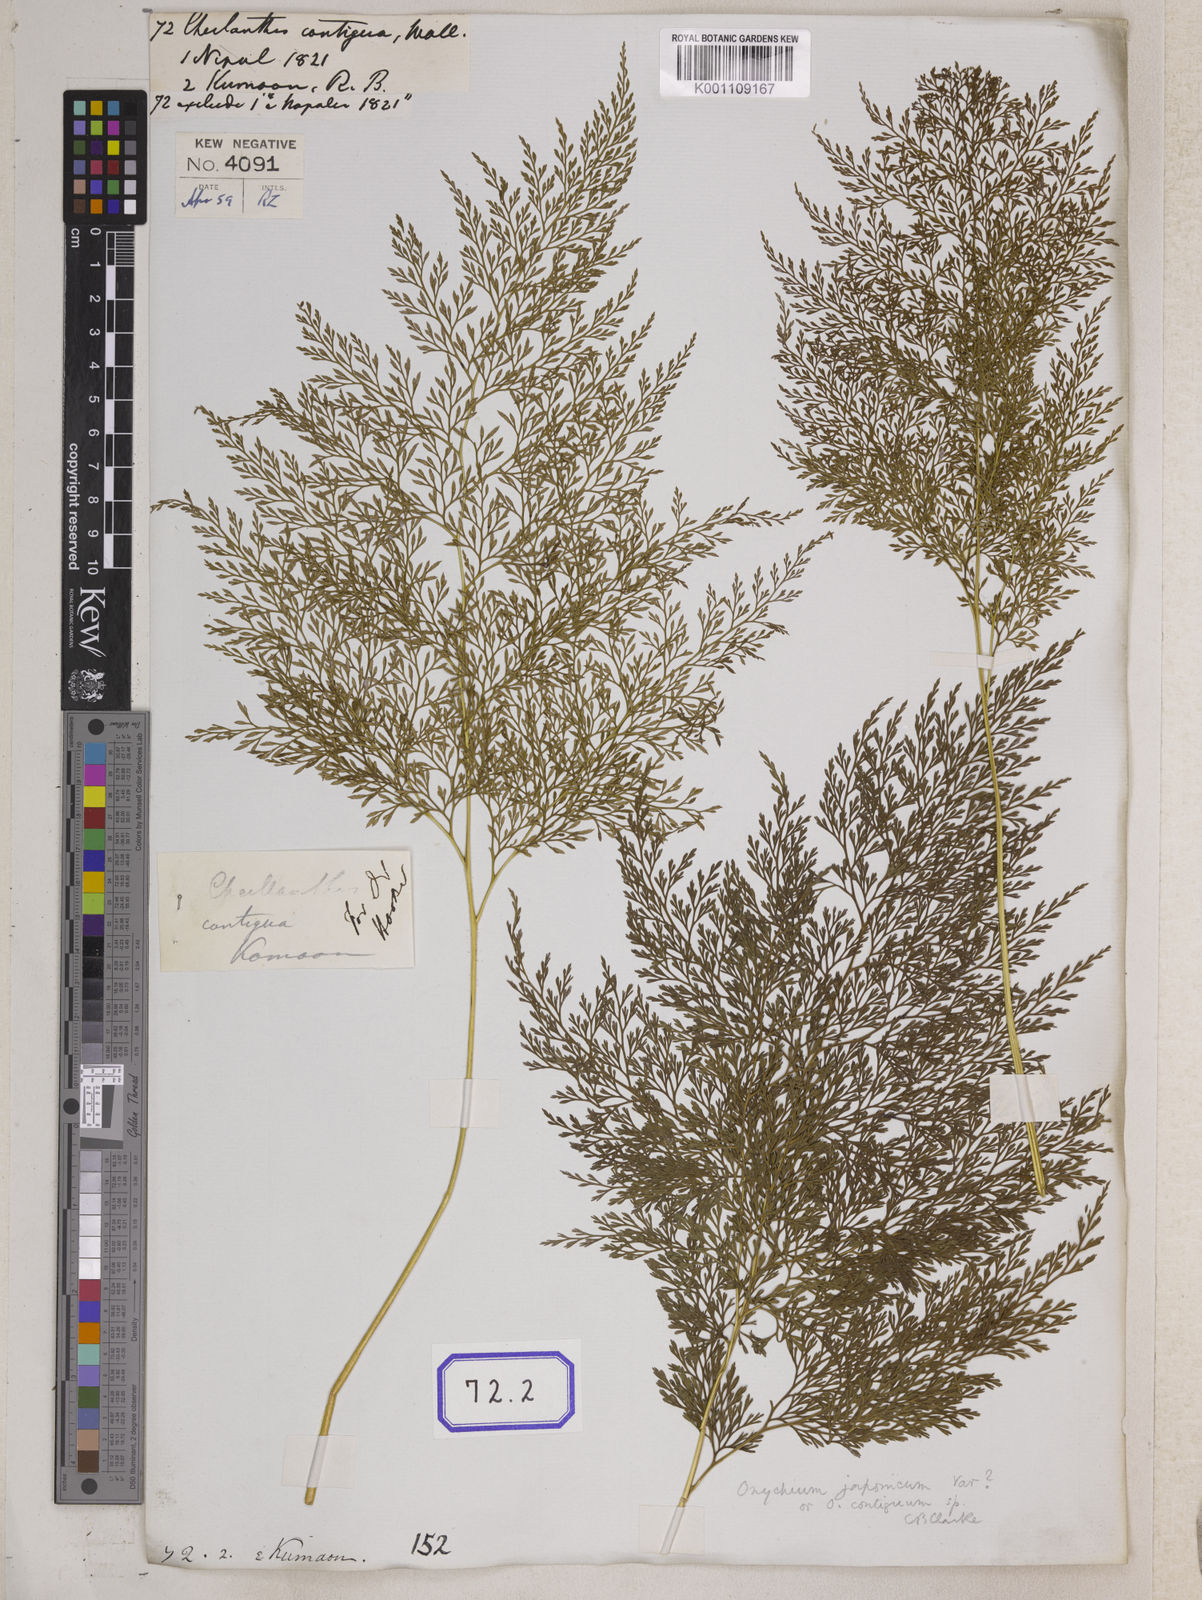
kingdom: Plantae
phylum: Tracheophyta
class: Polypodiopsida
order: Polypodiales
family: Pteridaceae
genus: Onychium
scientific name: Onychium cryptogrammoides
